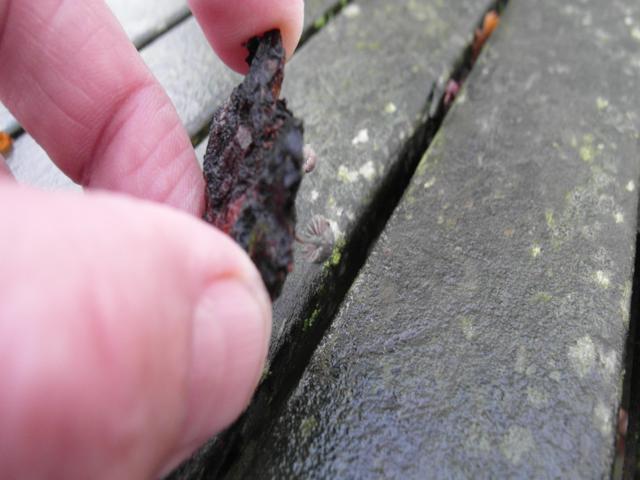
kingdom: Fungi
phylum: Basidiomycota
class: Agaricomycetes
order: Agaricales
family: Mycenaceae
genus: Mycena
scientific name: Mycena pseudocorticola
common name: gråblå bark-huesvamp
